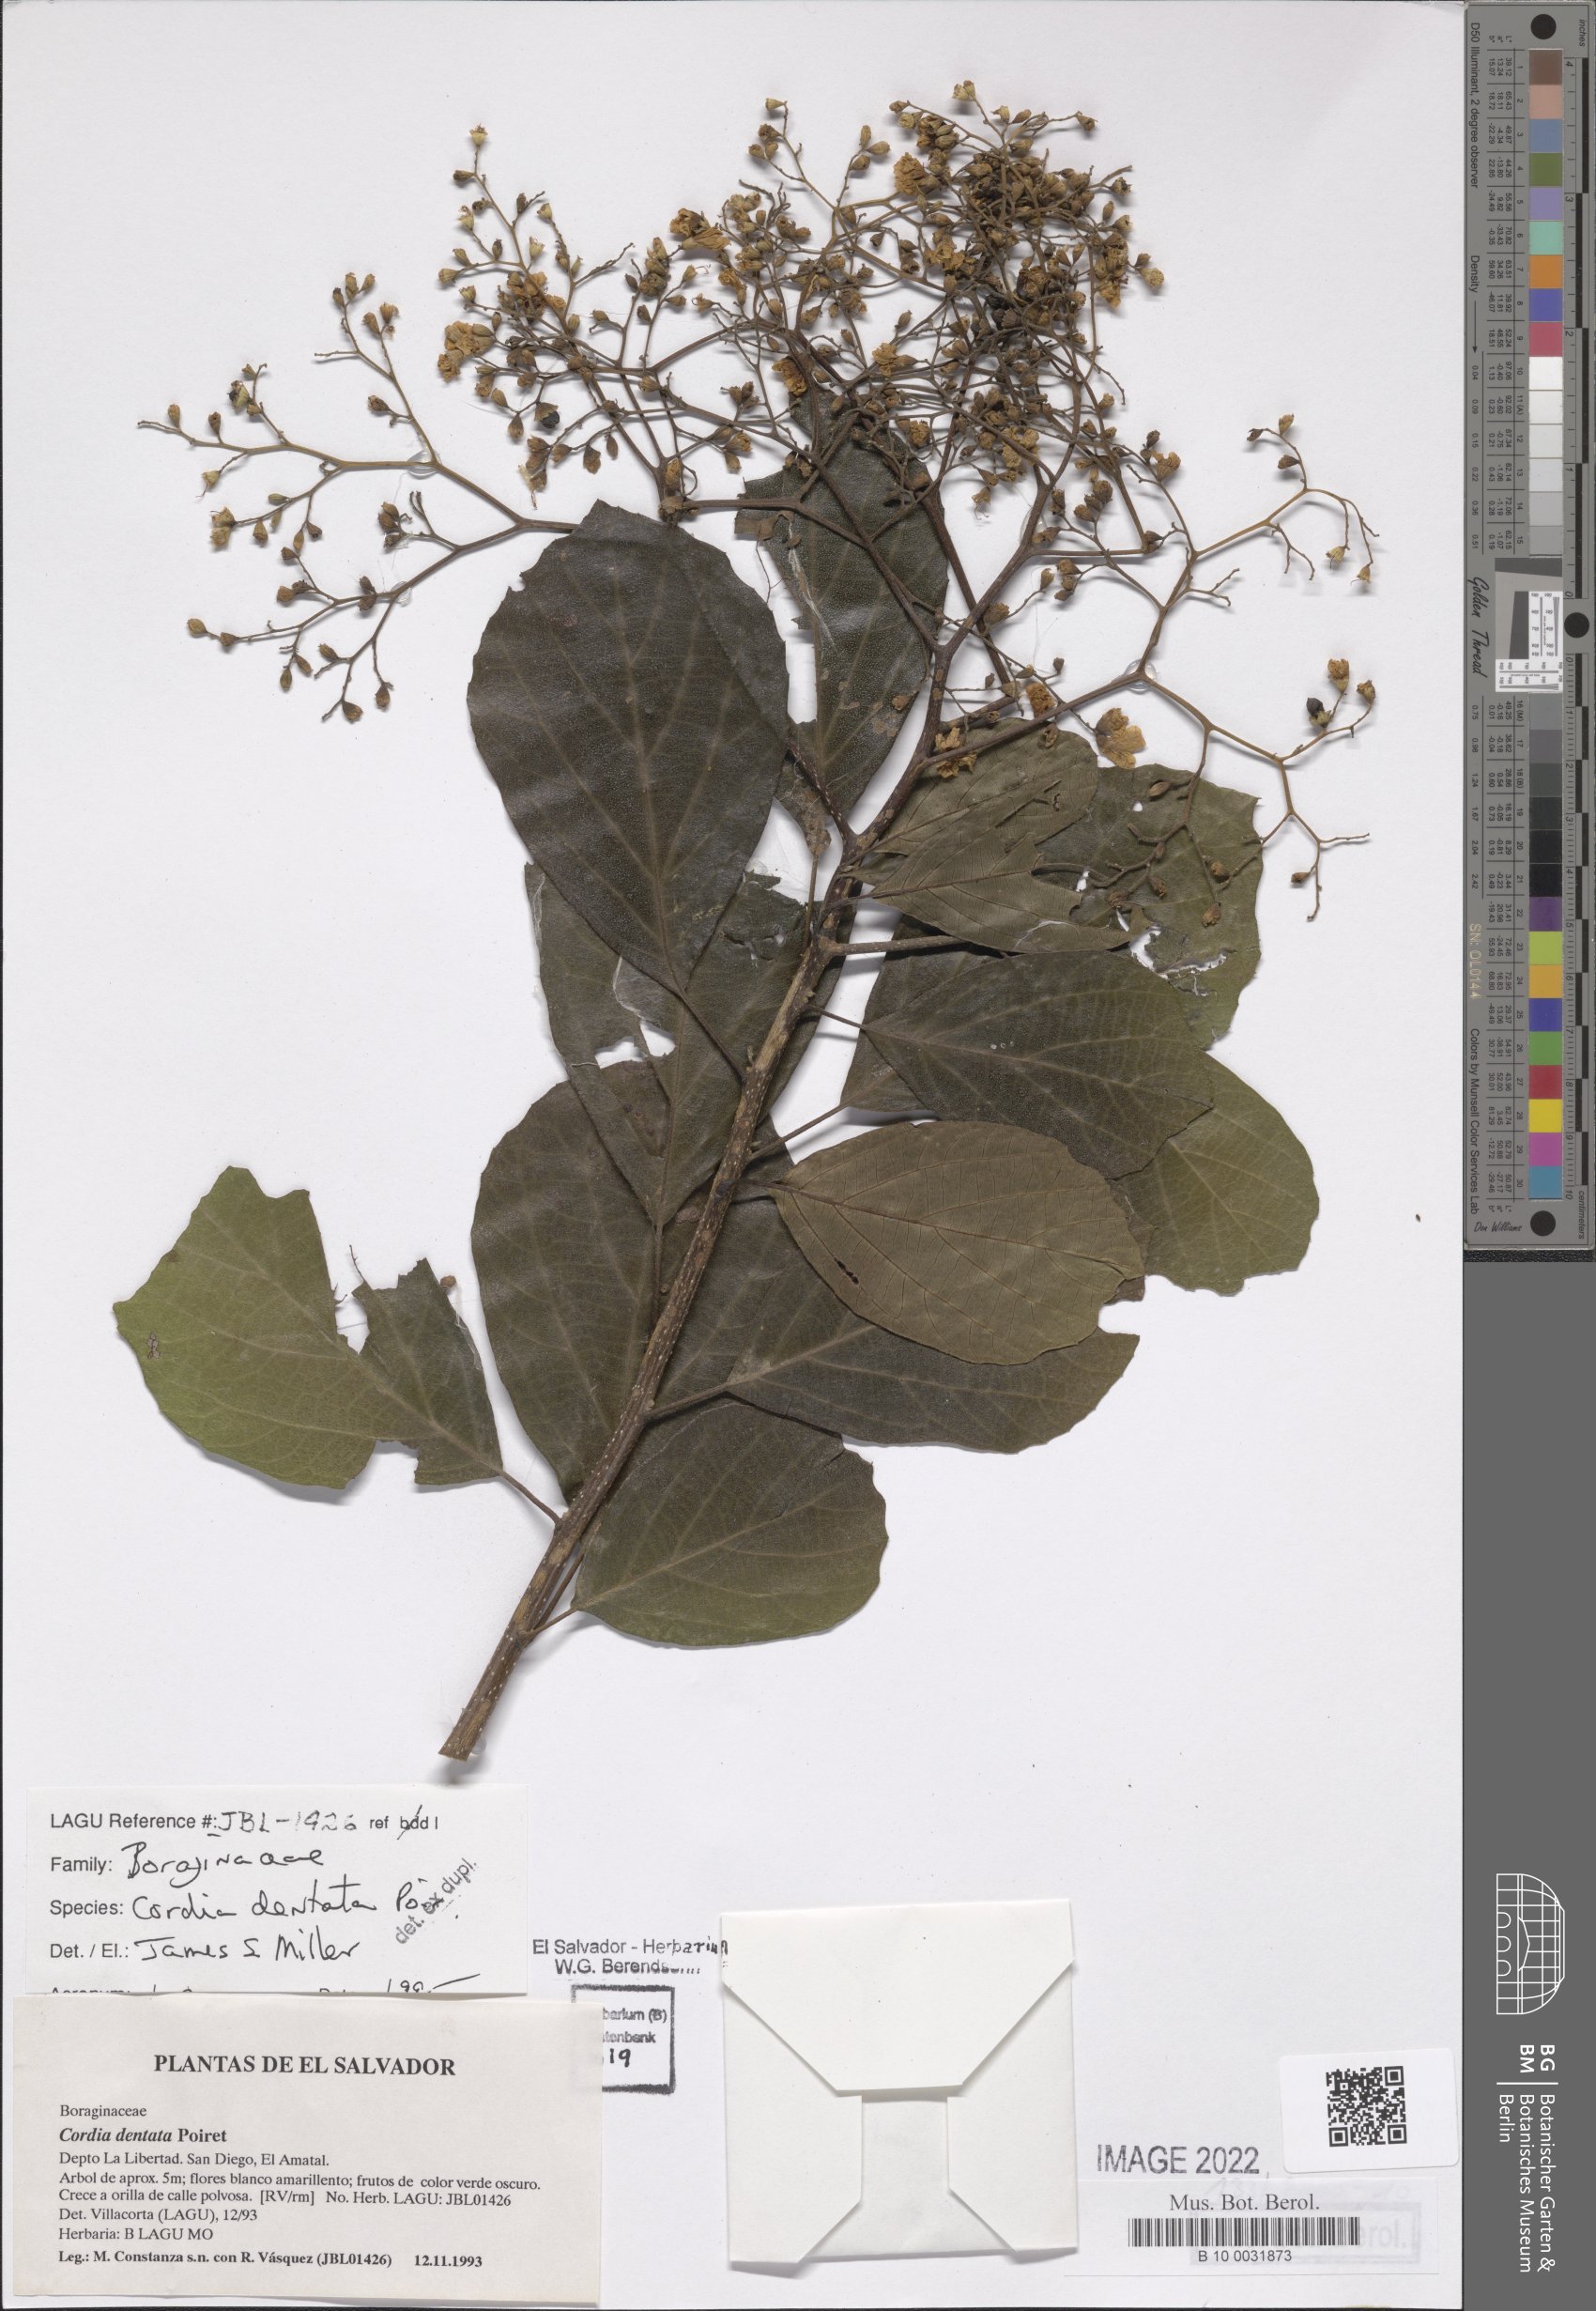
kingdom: Plantae
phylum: Tracheophyta
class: Magnoliopsida
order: Boraginales
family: Cordiaceae
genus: Cordia
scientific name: Cordia dentata
